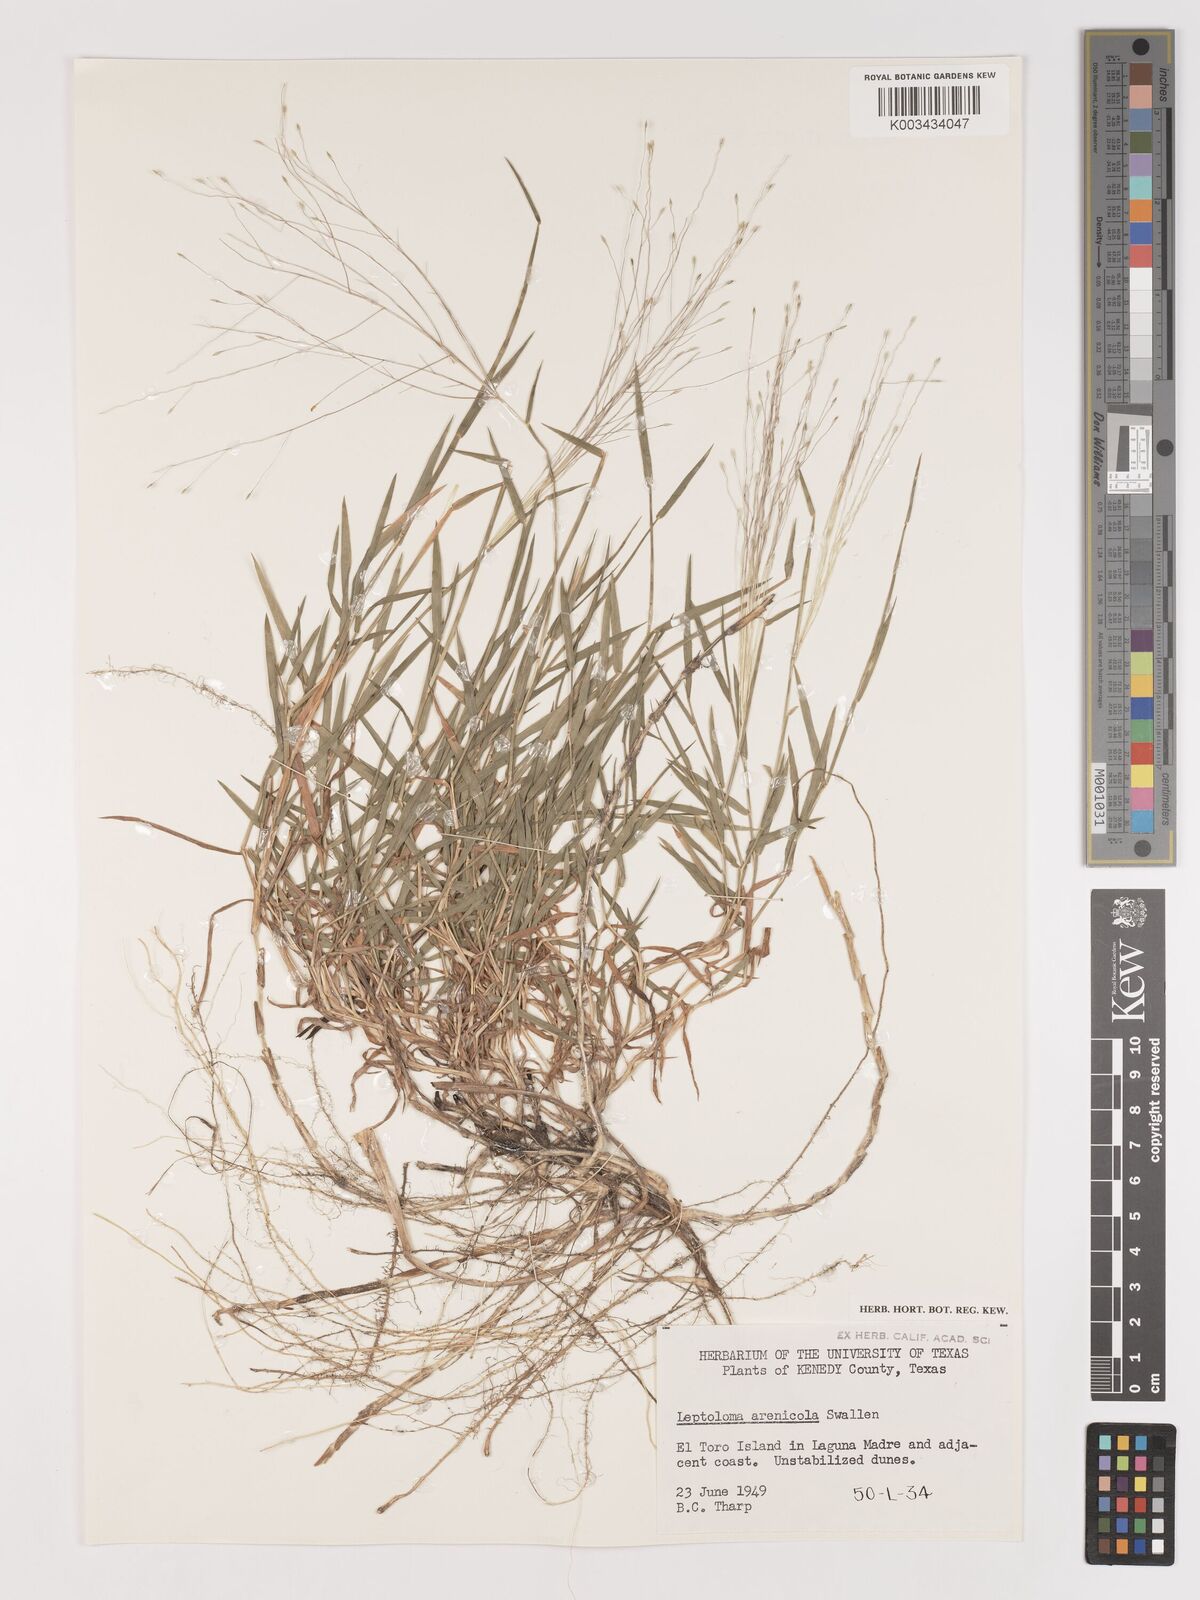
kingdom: Plantae
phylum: Tracheophyta
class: Liliopsida
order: Poales
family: Poaceae
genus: Digitaria
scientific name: Digitaria arenicola
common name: Sand witchgrass
